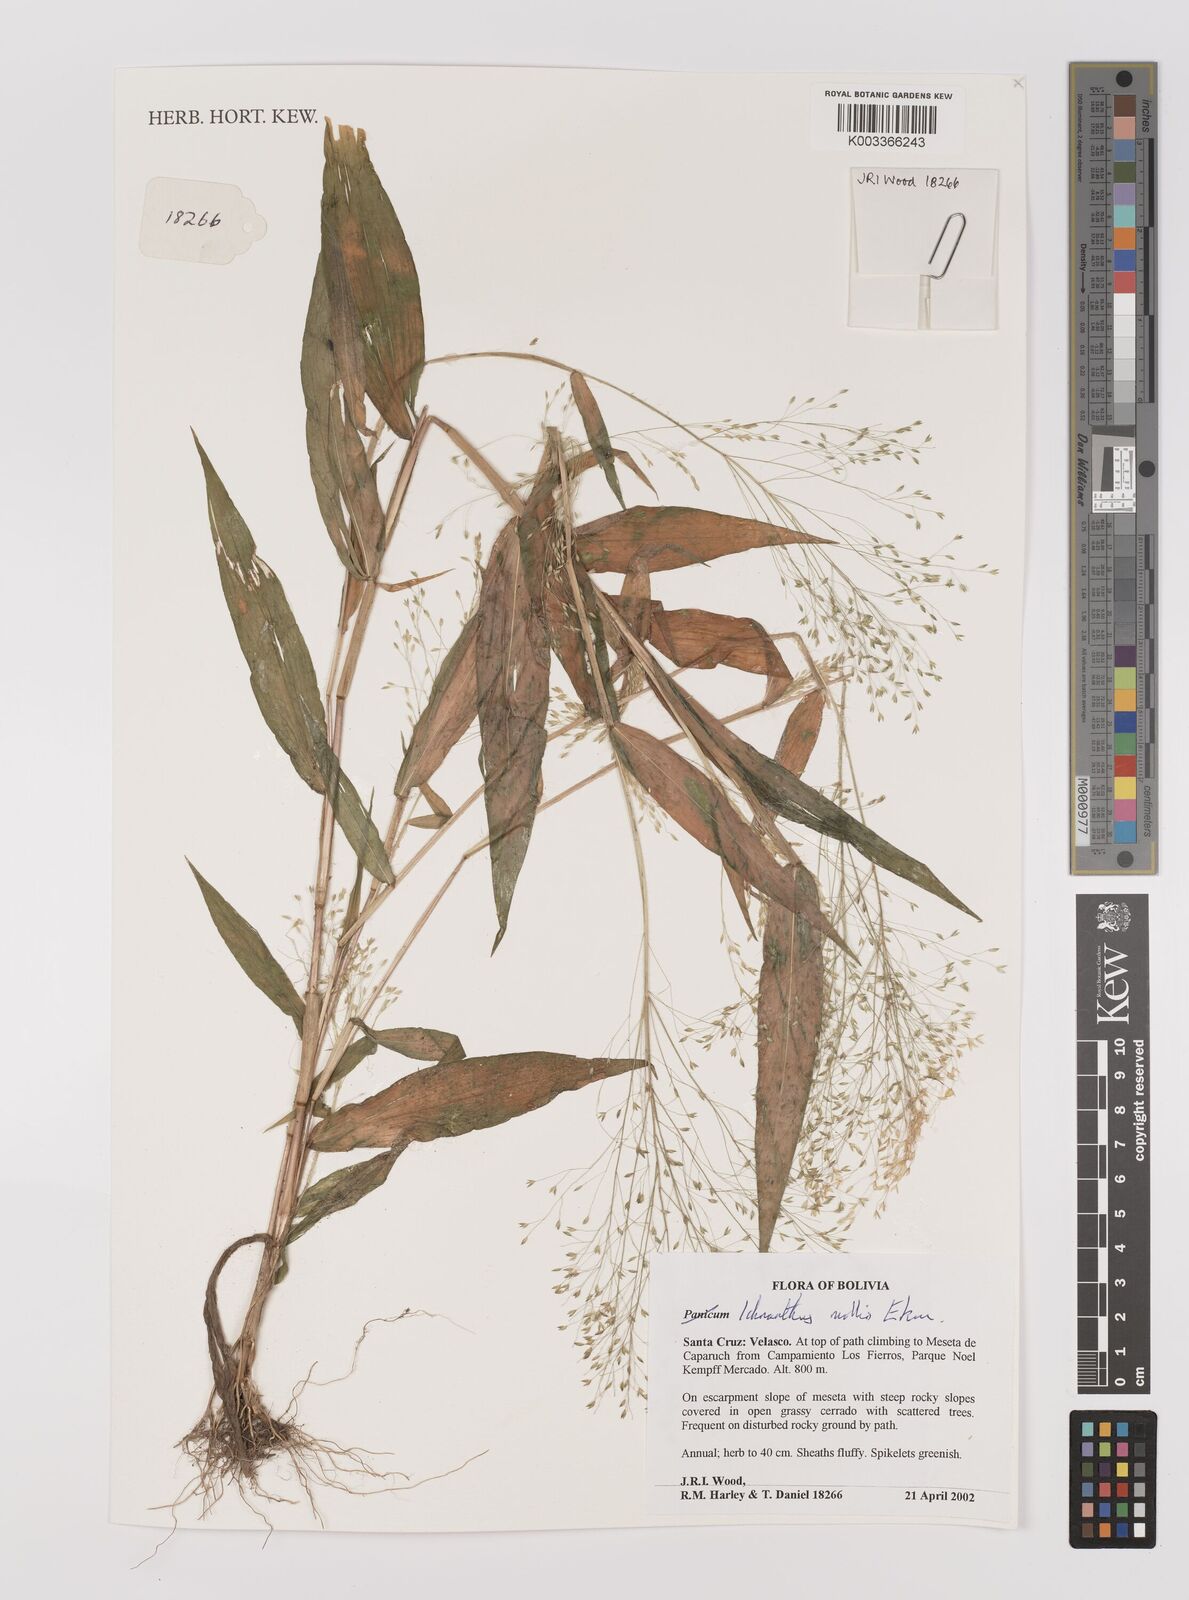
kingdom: Plantae
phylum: Tracheophyta
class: Liliopsida
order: Poales
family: Poaceae
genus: Ichnanthus
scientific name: Ichnanthus mollis
